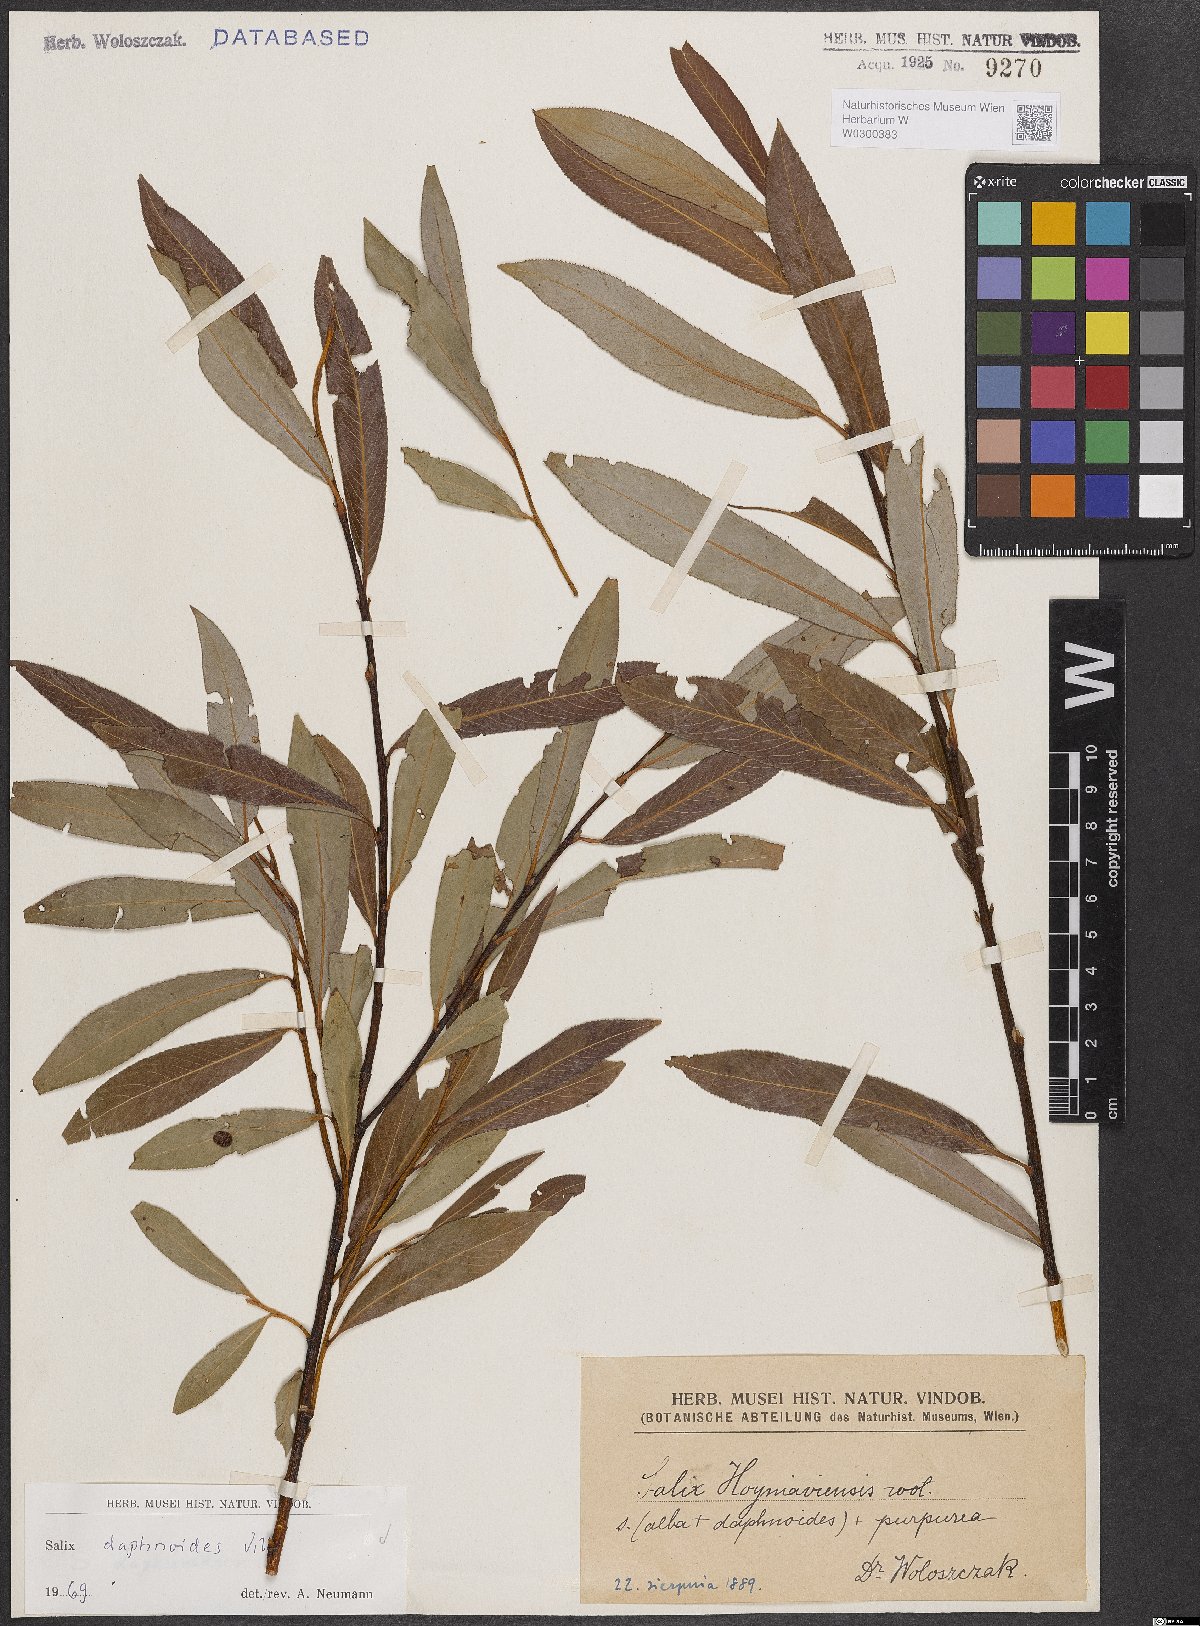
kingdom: Plantae
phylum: Tracheophyta
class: Magnoliopsida
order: Malpighiales
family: Salicaceae
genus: Salix
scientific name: Salix daphnoides
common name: European violet-willow
